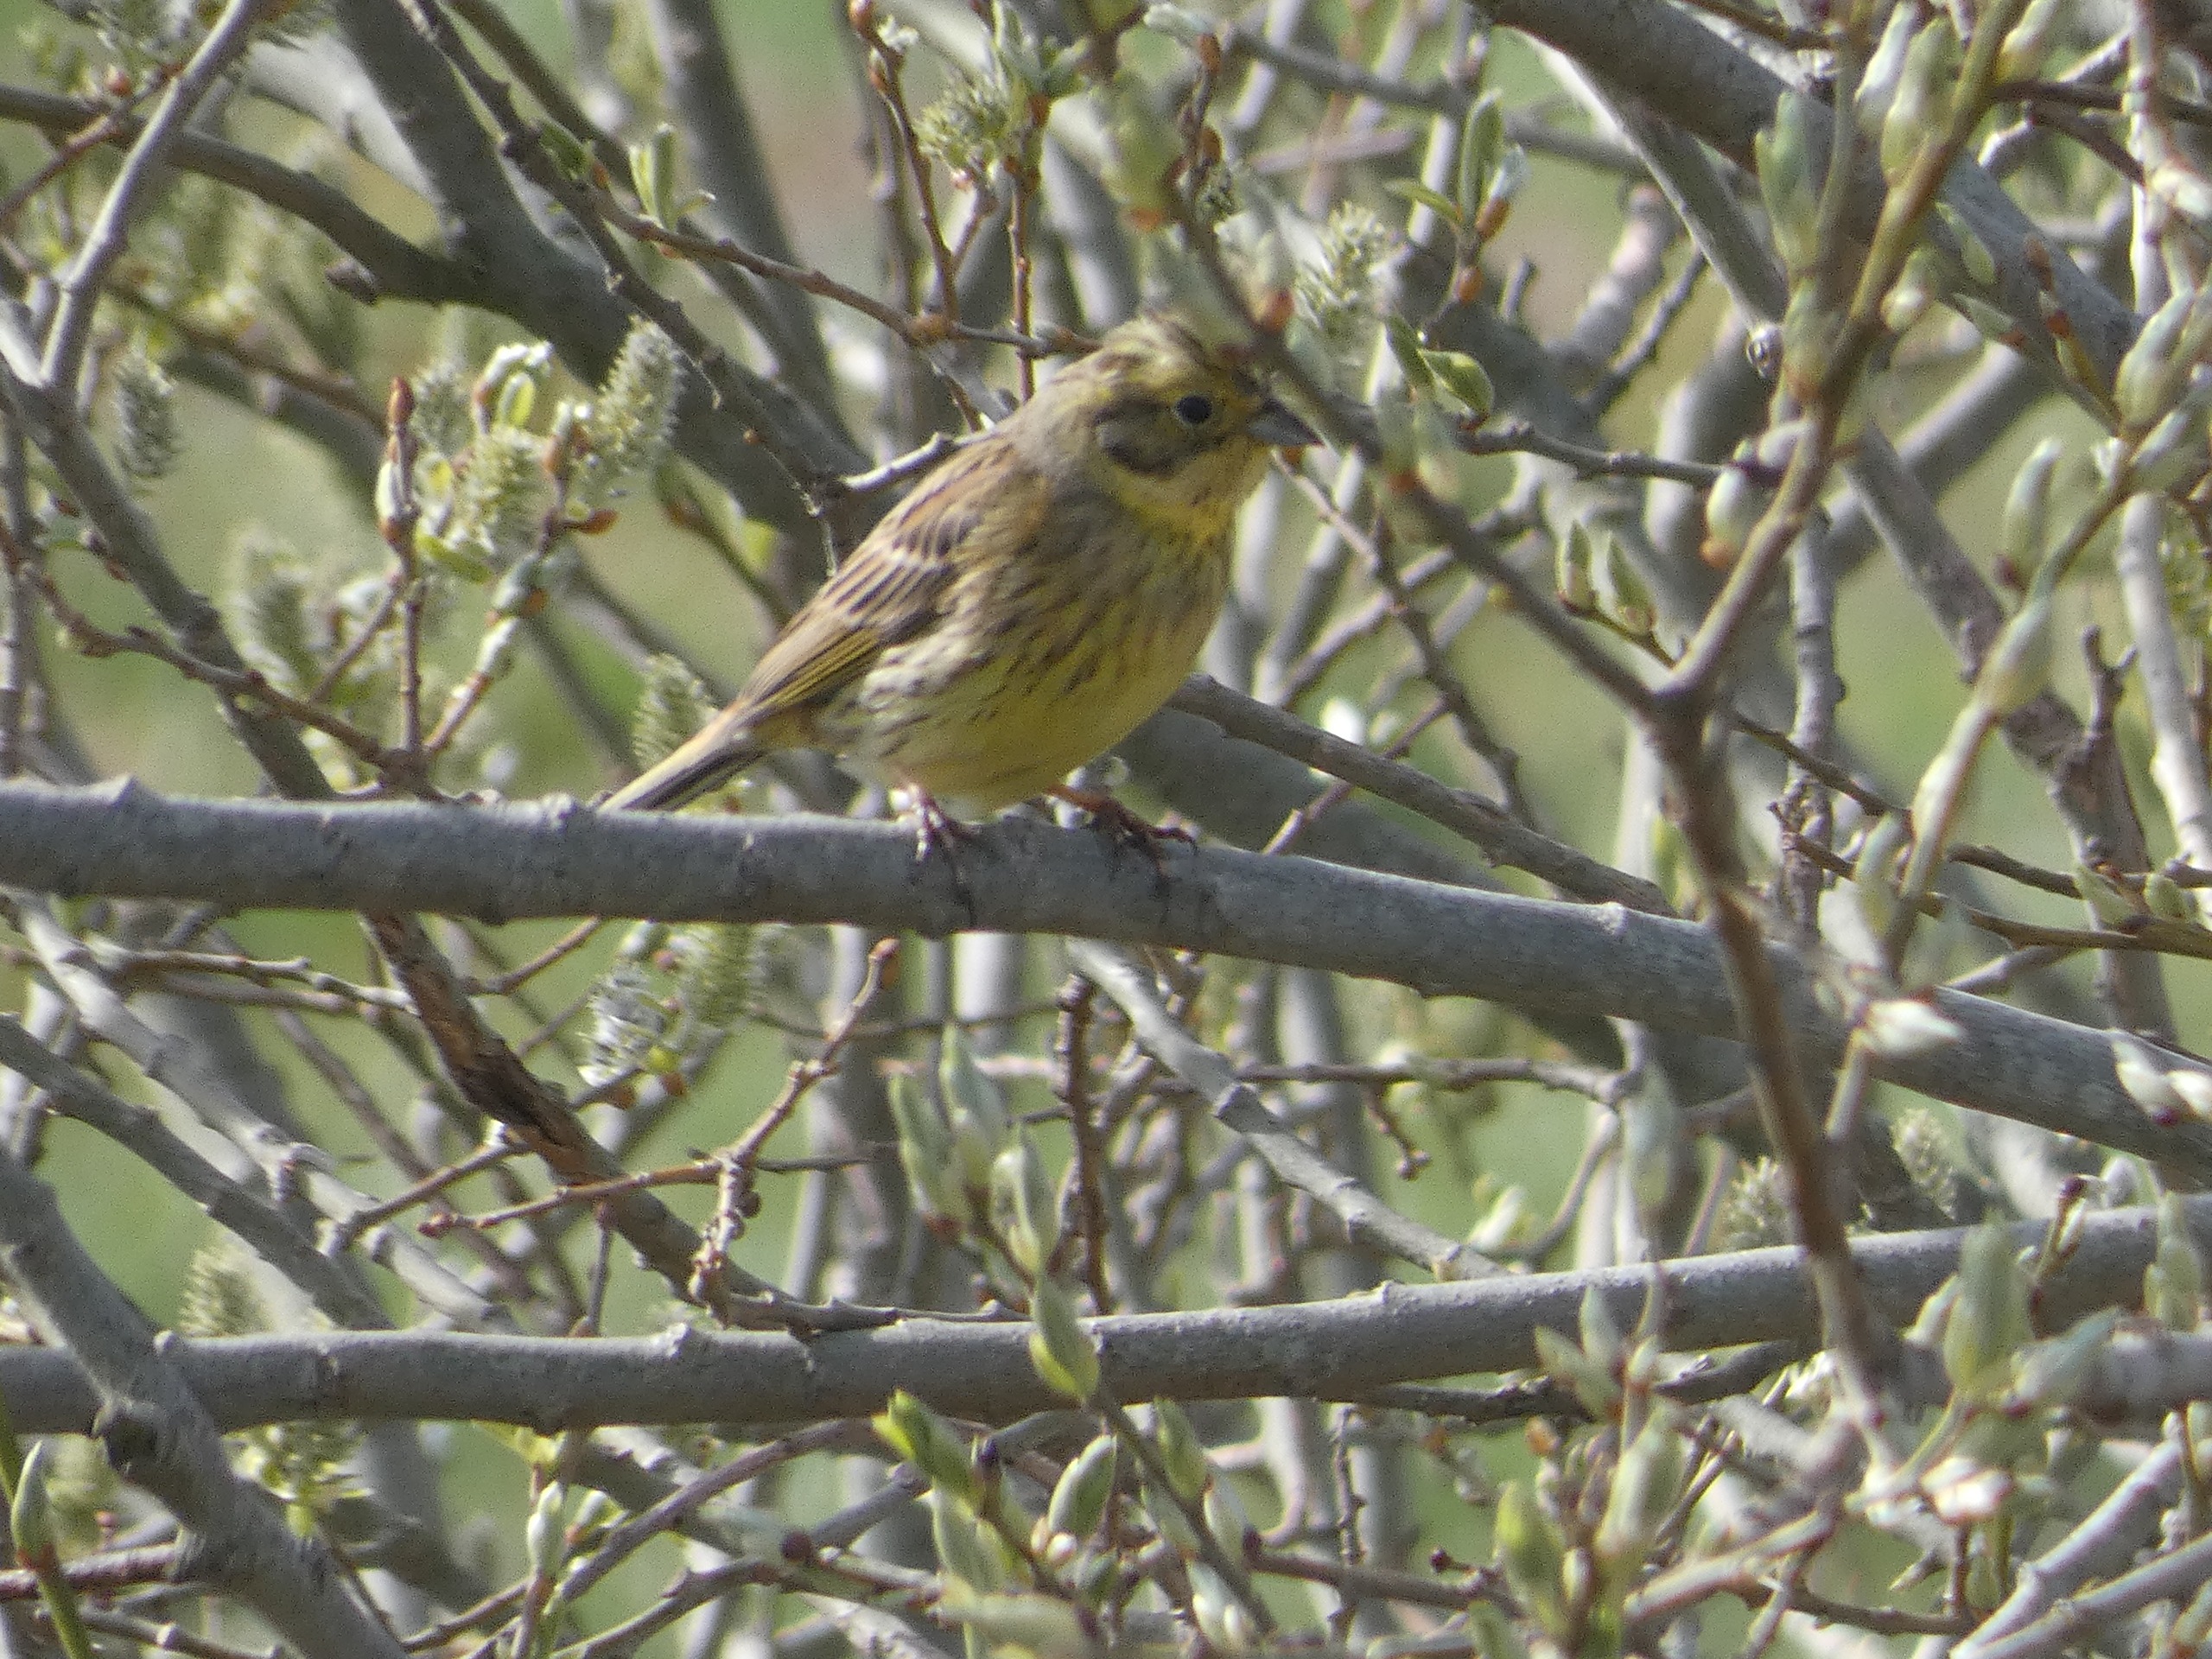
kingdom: Animalia
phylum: Chordata
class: Aves
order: Passeriformes
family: Emberizidae
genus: Emberiza
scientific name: Emberiza citrinella
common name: Gulspurv
